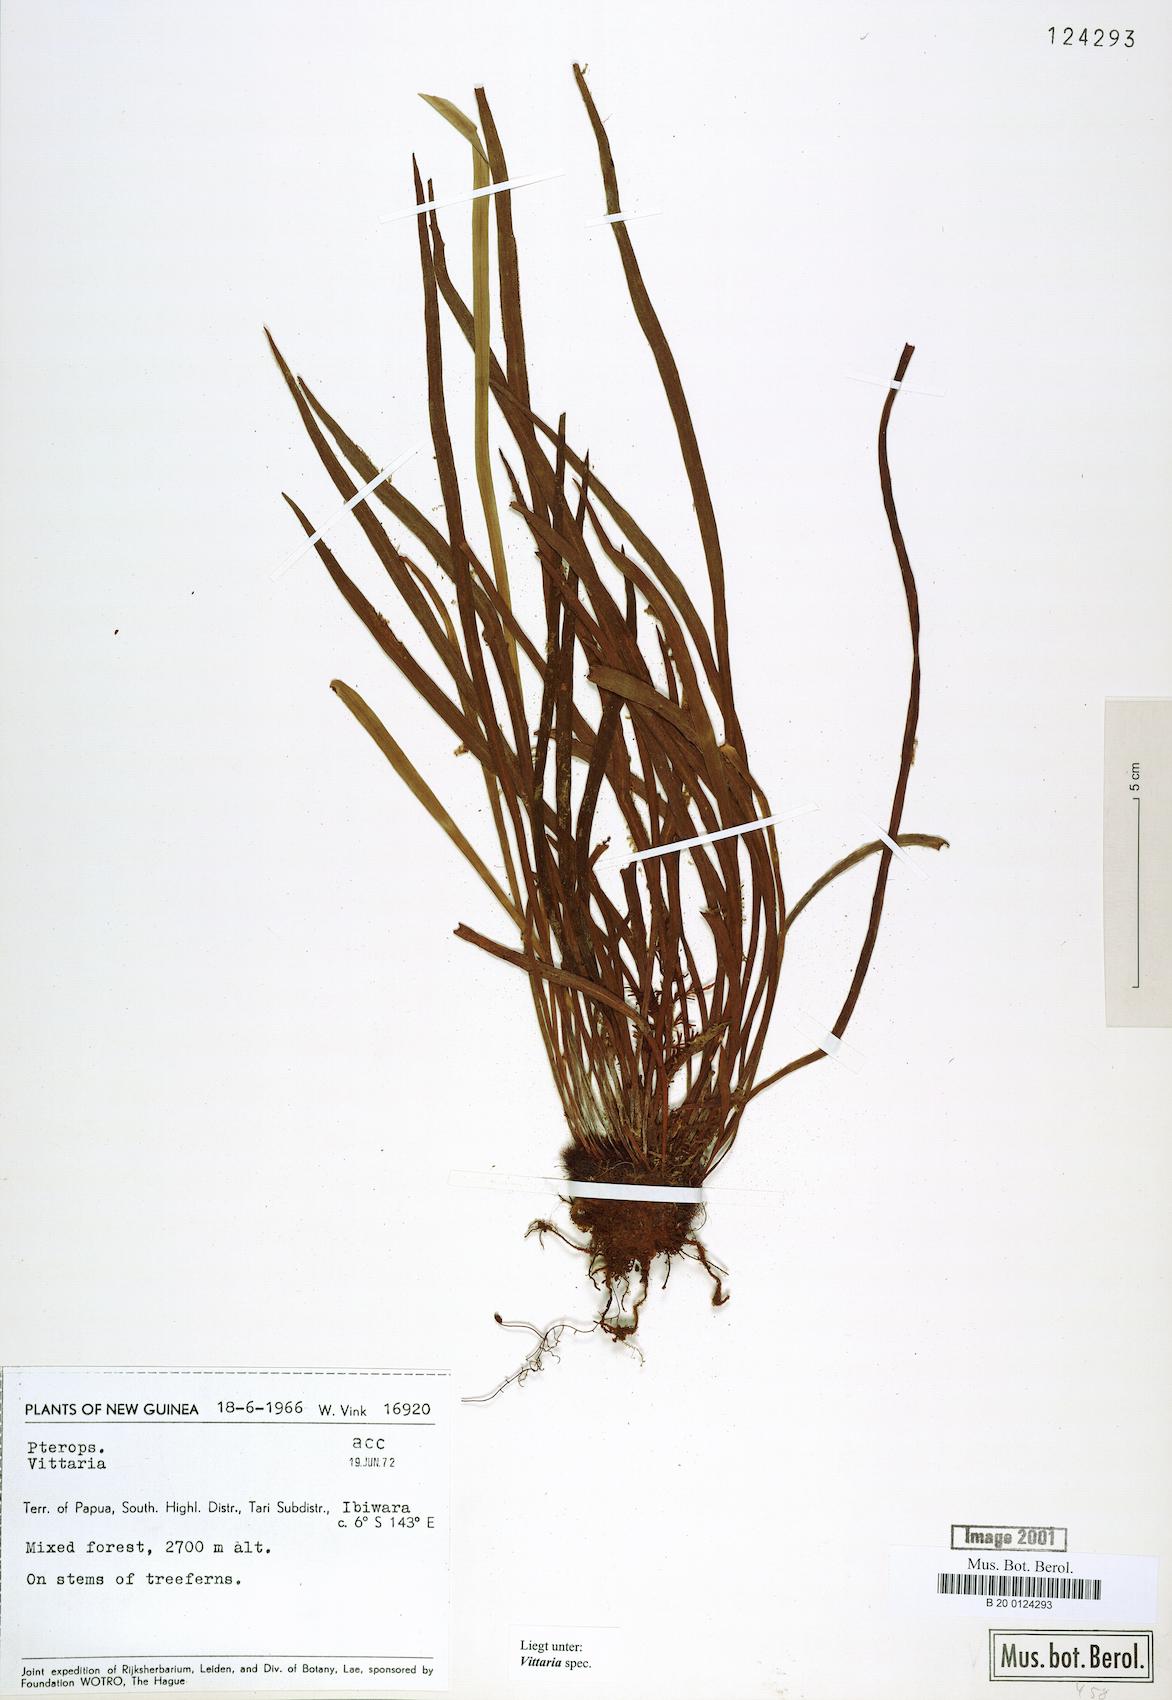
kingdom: Plantae
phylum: Tracheophyta
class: Polypodiopsida
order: Polypodiales
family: Pteridaceae
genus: Vittaria
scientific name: Vittaria
